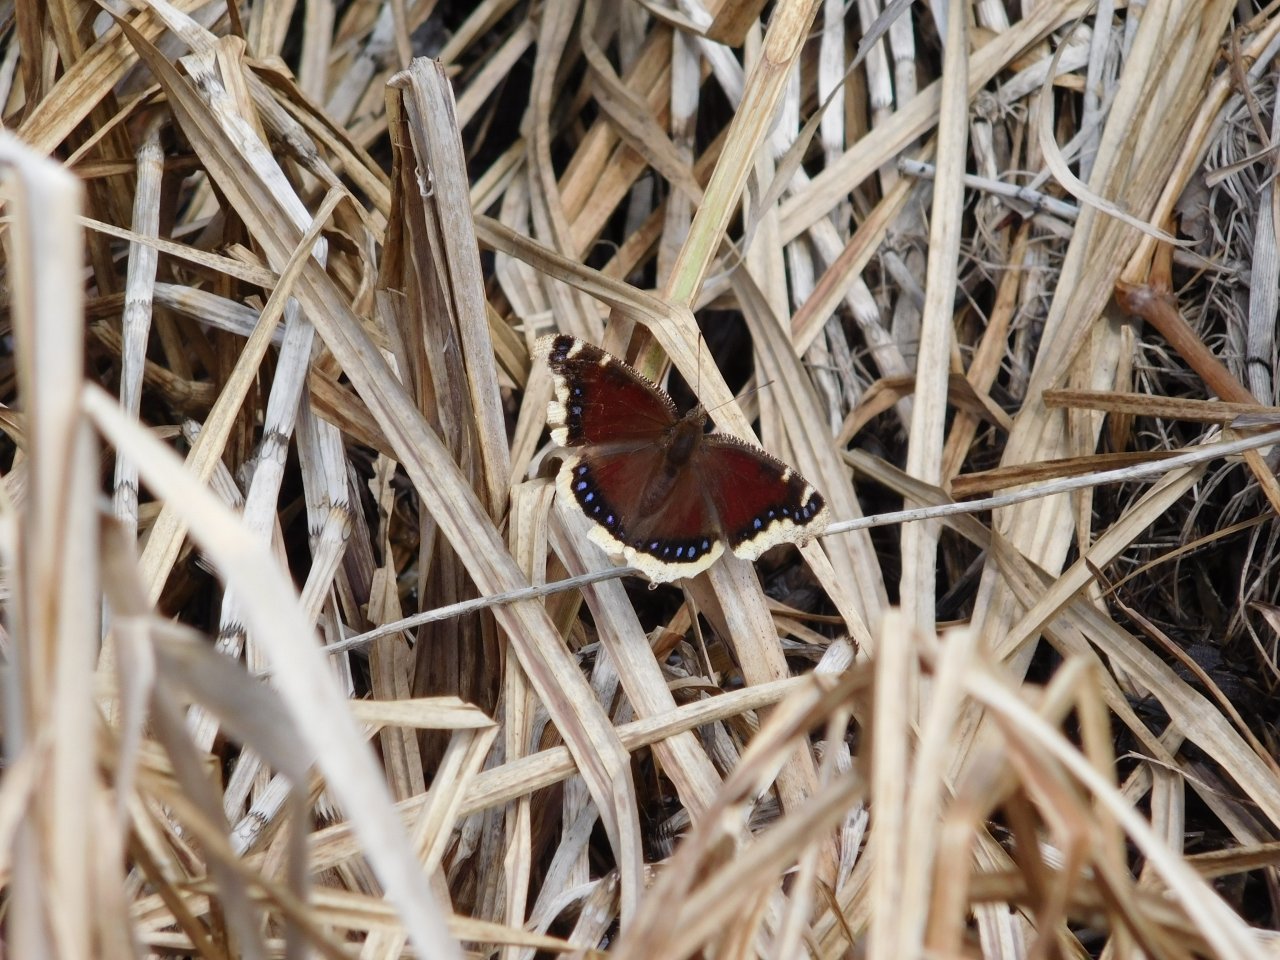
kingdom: Animalia
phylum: Arthropoda
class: Insecta
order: Lepidoptera
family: Nymphalidae
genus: Nymphalis
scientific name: Nymphalis antiopa
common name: Mourning Cloak
